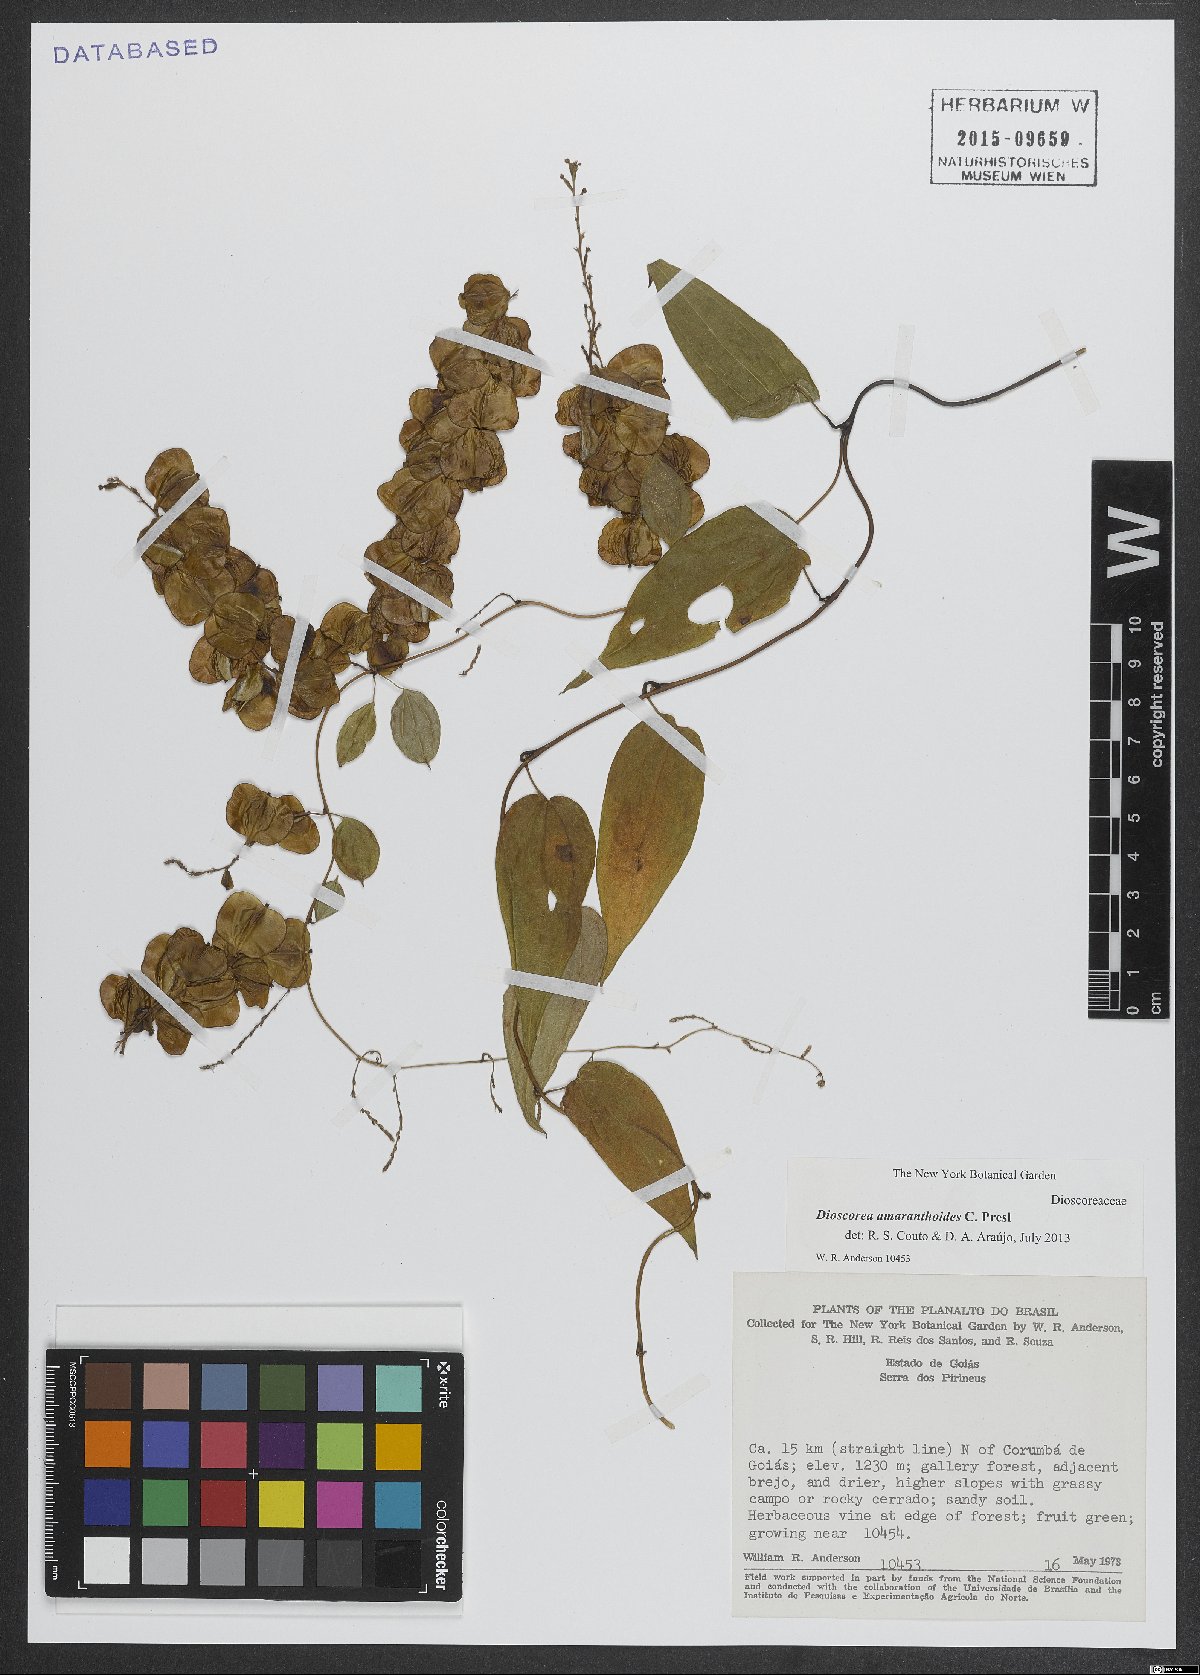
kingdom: Plantae
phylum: Tracheophyta
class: Liliopsida
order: Dioscoreales
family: Dioscoreaceae
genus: Dioscorea
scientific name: Dioscorea amaranthoides
